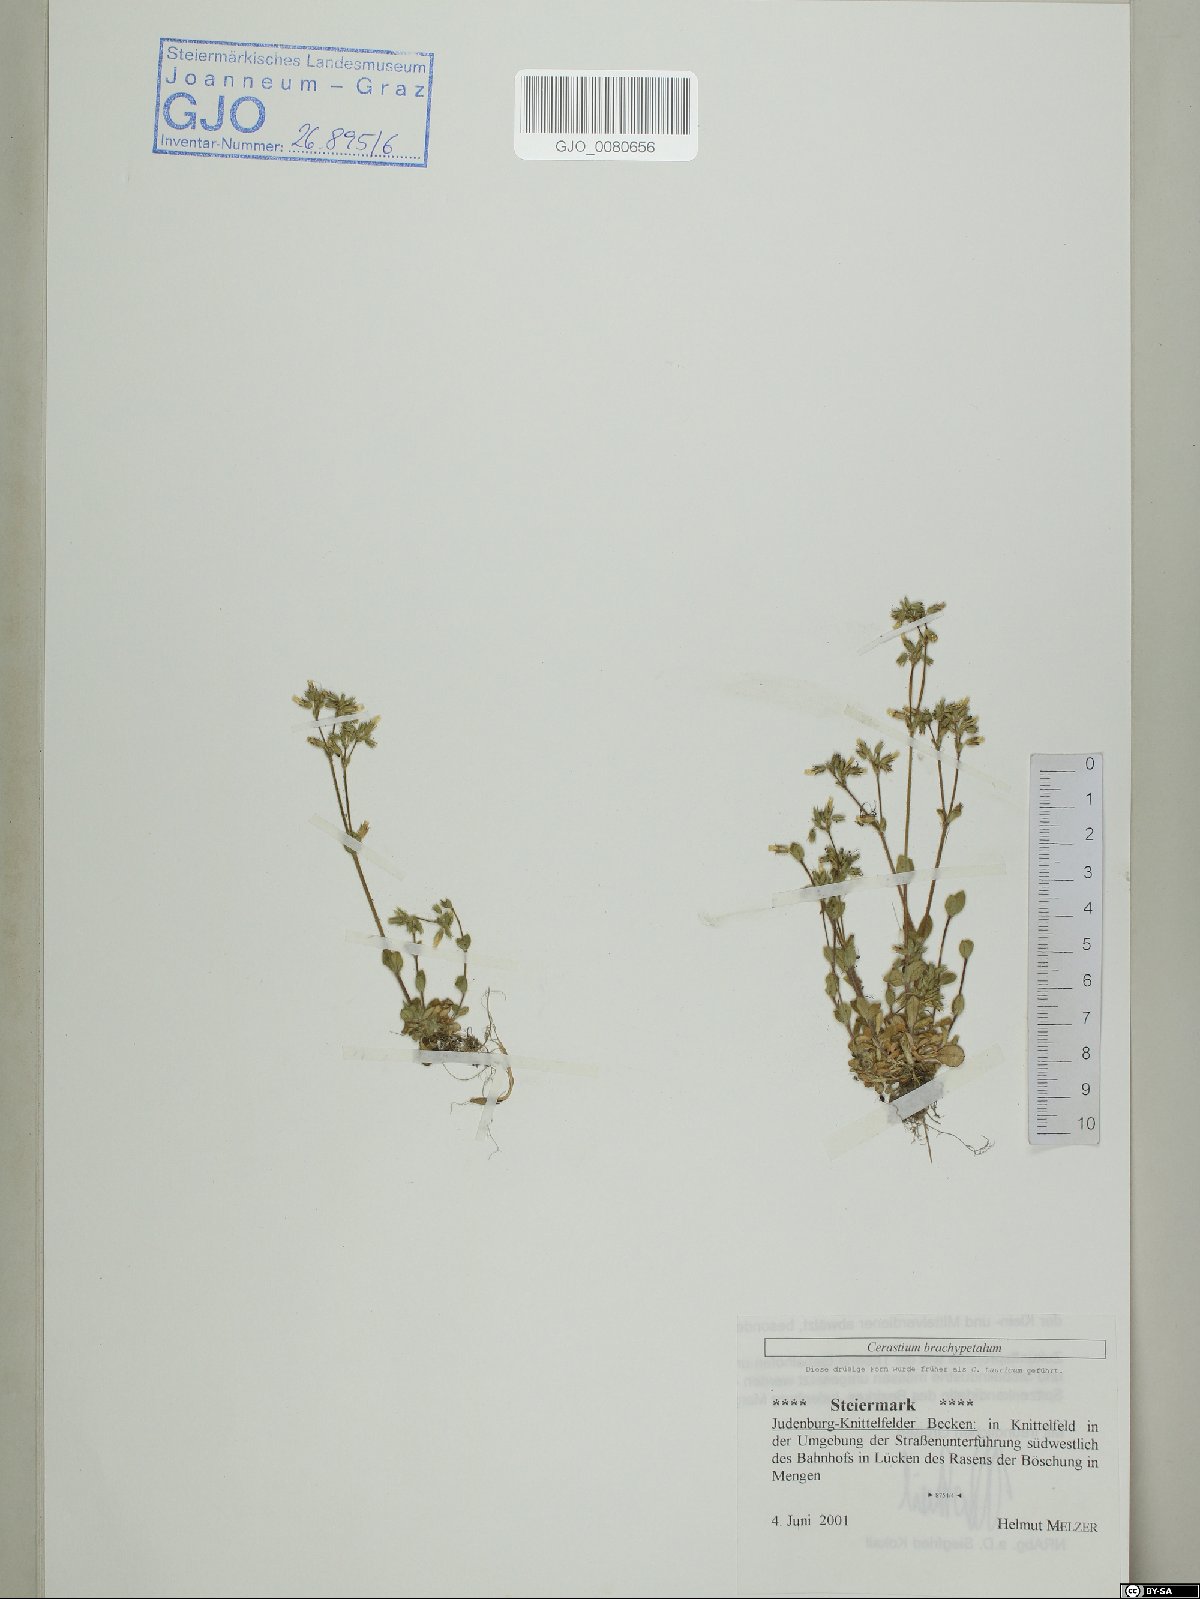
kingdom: Plantae
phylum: Tracheophyta
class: Magnoliopsida
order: Caryophyllales
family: Caryophyllaceae
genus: Cerastium
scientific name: Cerastium brachypetalum
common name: Grey mouse-ear
